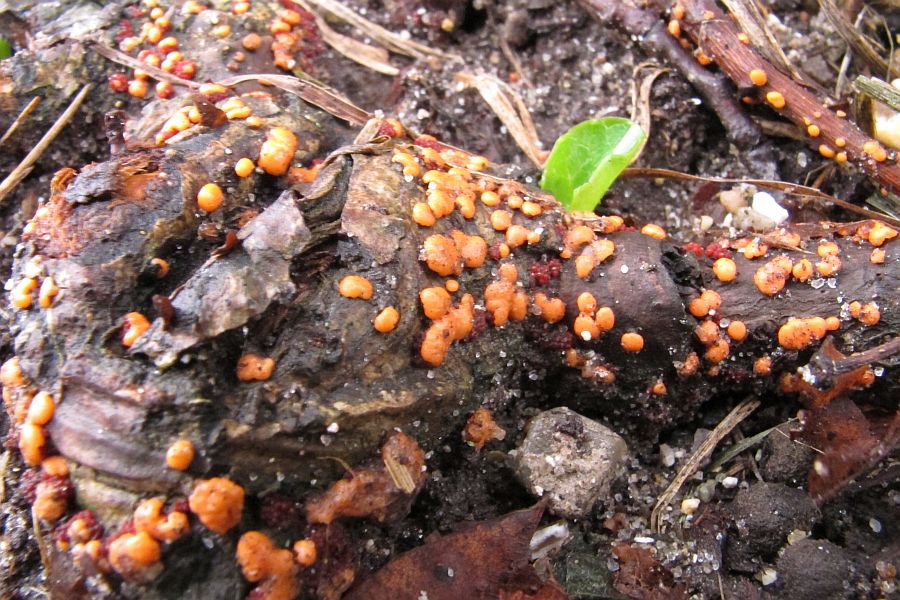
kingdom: Fungi
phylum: Ascomycota
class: Sordariomycetes
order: Hypocreales
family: Nectriaceae
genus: Nectria
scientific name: Nectria cinnabarina
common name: almindelig cinnobersvamp
